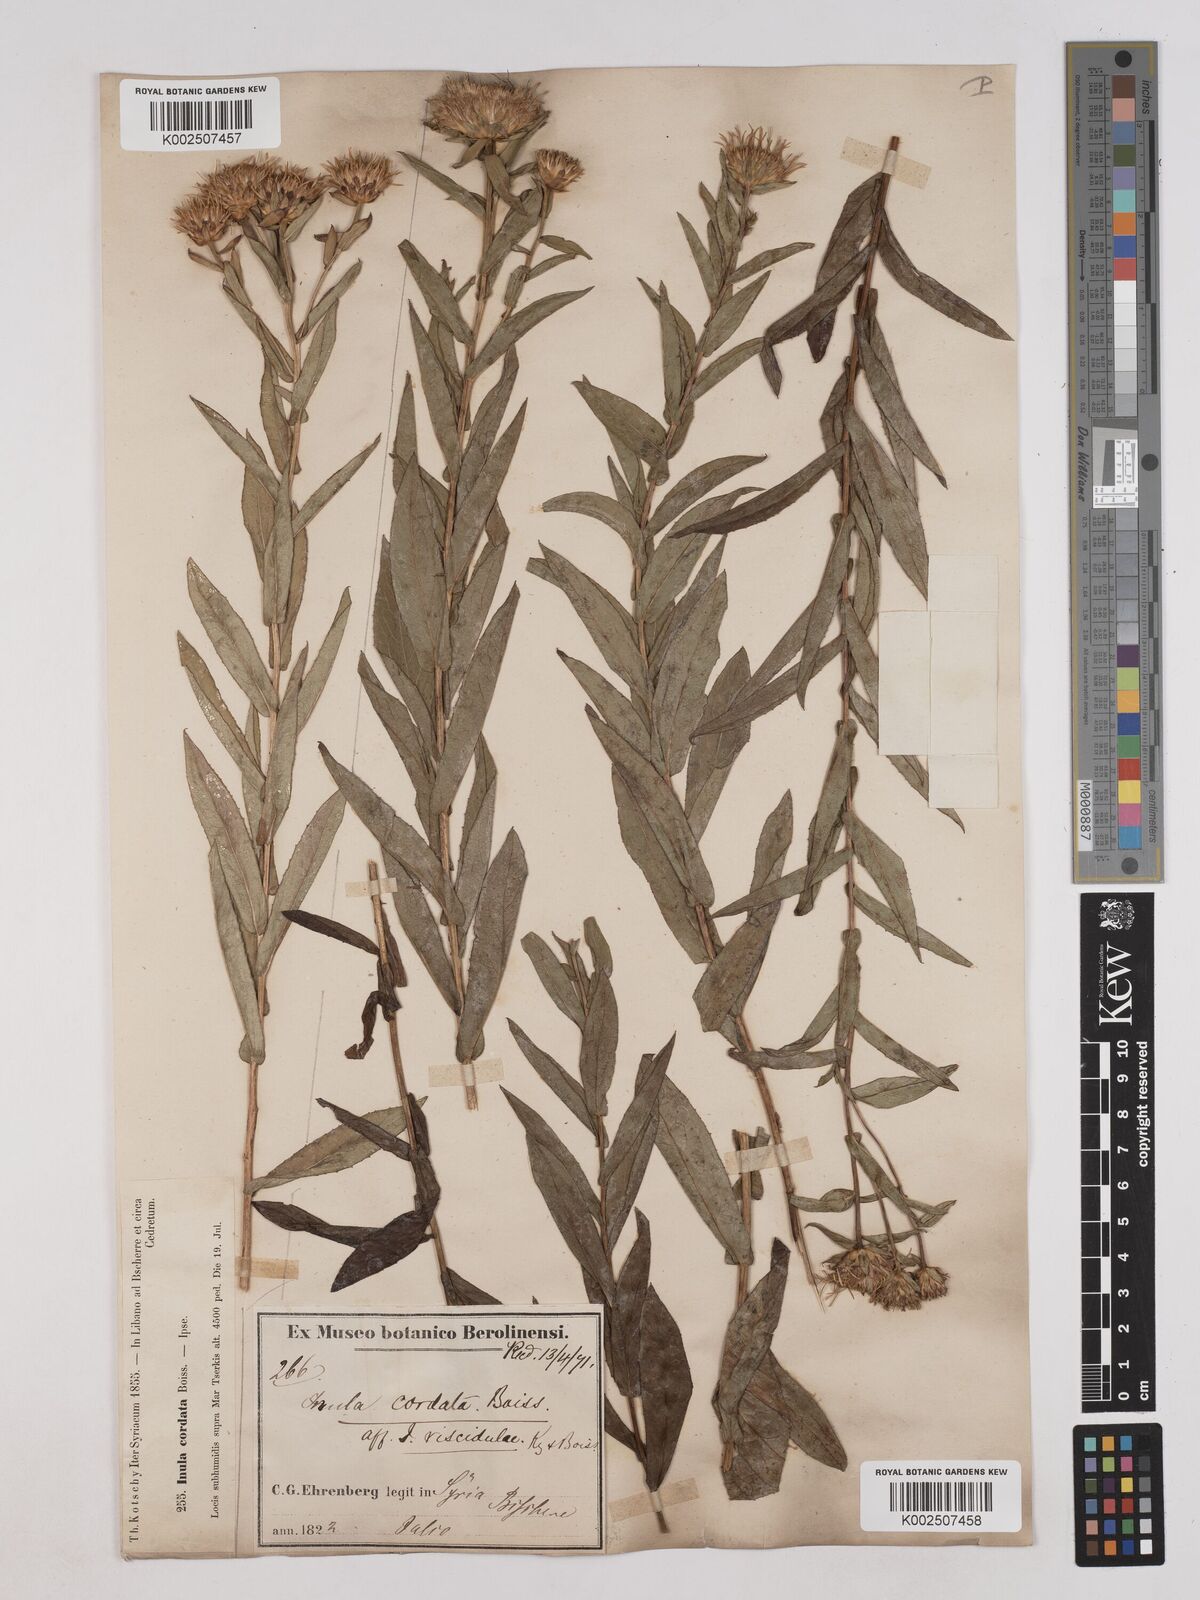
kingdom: Plantae
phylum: Tracheophyta
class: Magnoliopsida
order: Asterales
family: Asteraceae
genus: Pentanema
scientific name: Pentanema salicinum
